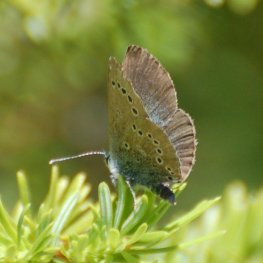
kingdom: Animalia
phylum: Arthropoda
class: Insecta
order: Lepidoptera
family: Lycaenidae
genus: Glaucopsyche
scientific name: Glaucopsyche lygdamus
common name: Silvery Blue
